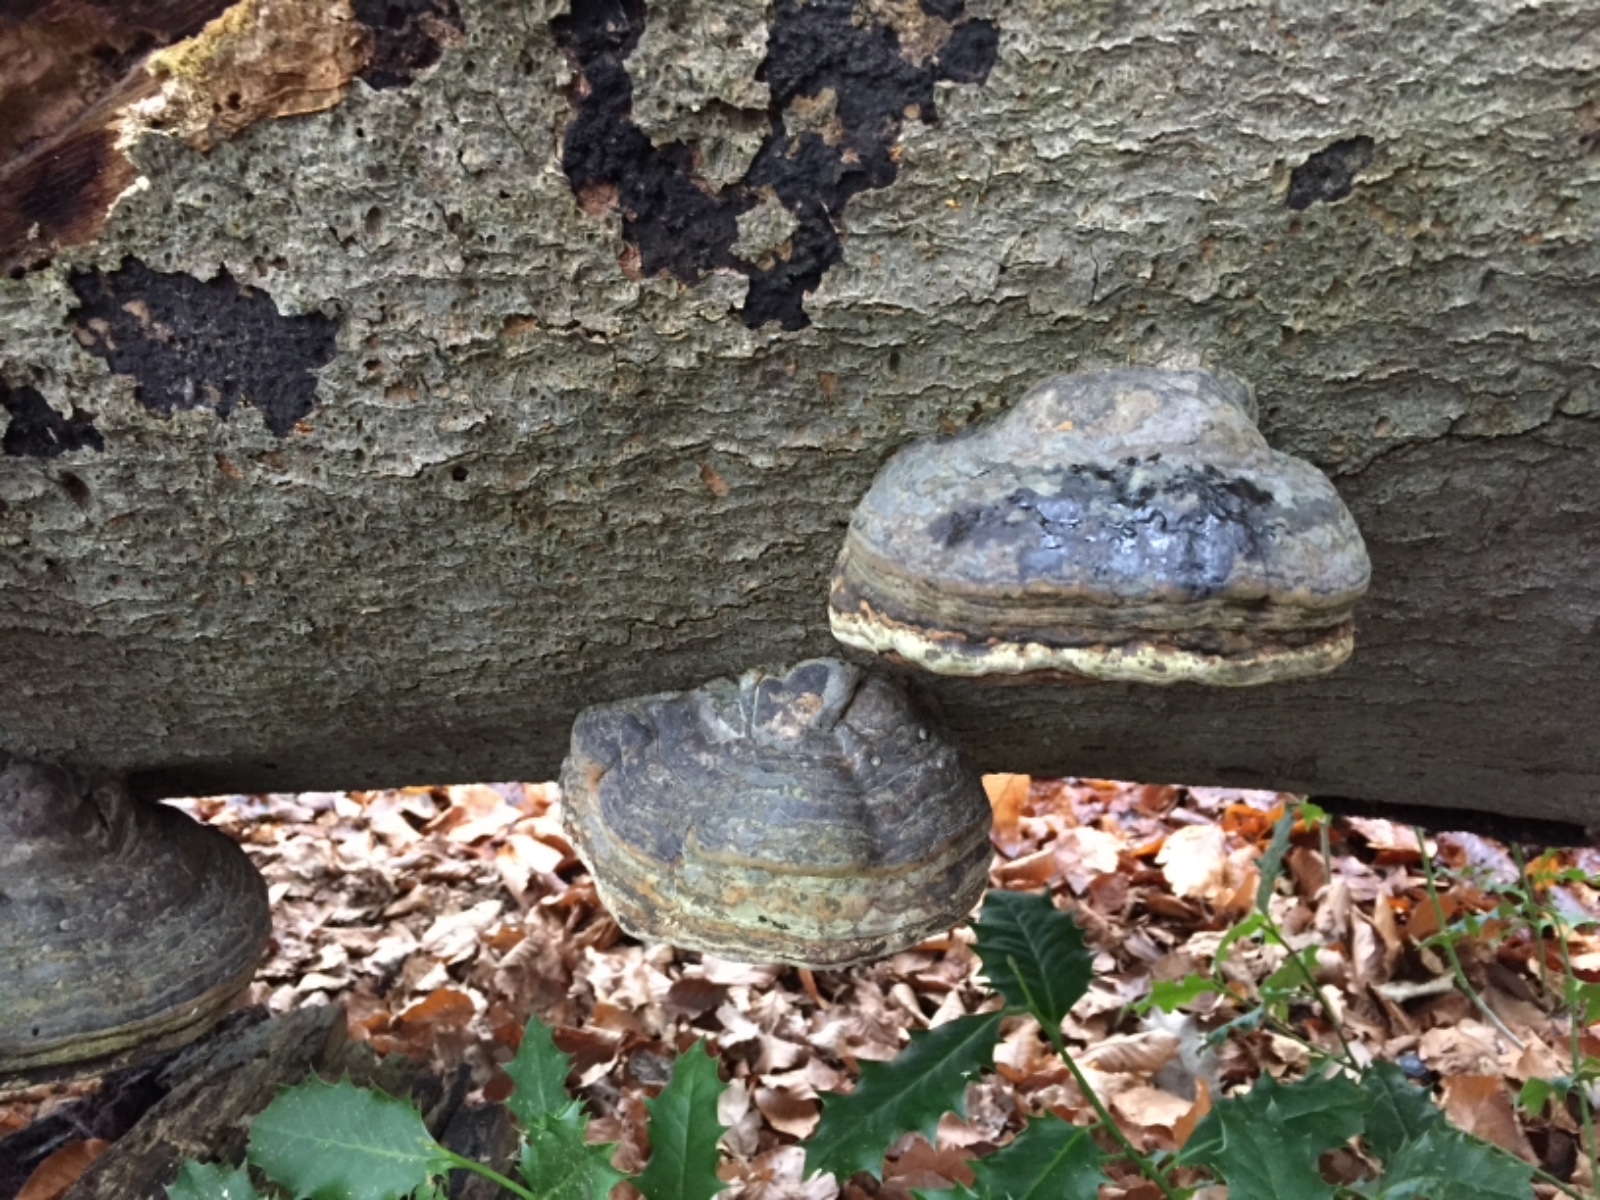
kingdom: Fungi
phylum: Basidiomycota
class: Agaricomycetes
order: Polyporales
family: Polyporaceae
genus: Fomes
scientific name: Fomes fomentarius
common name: tøndersvamp
